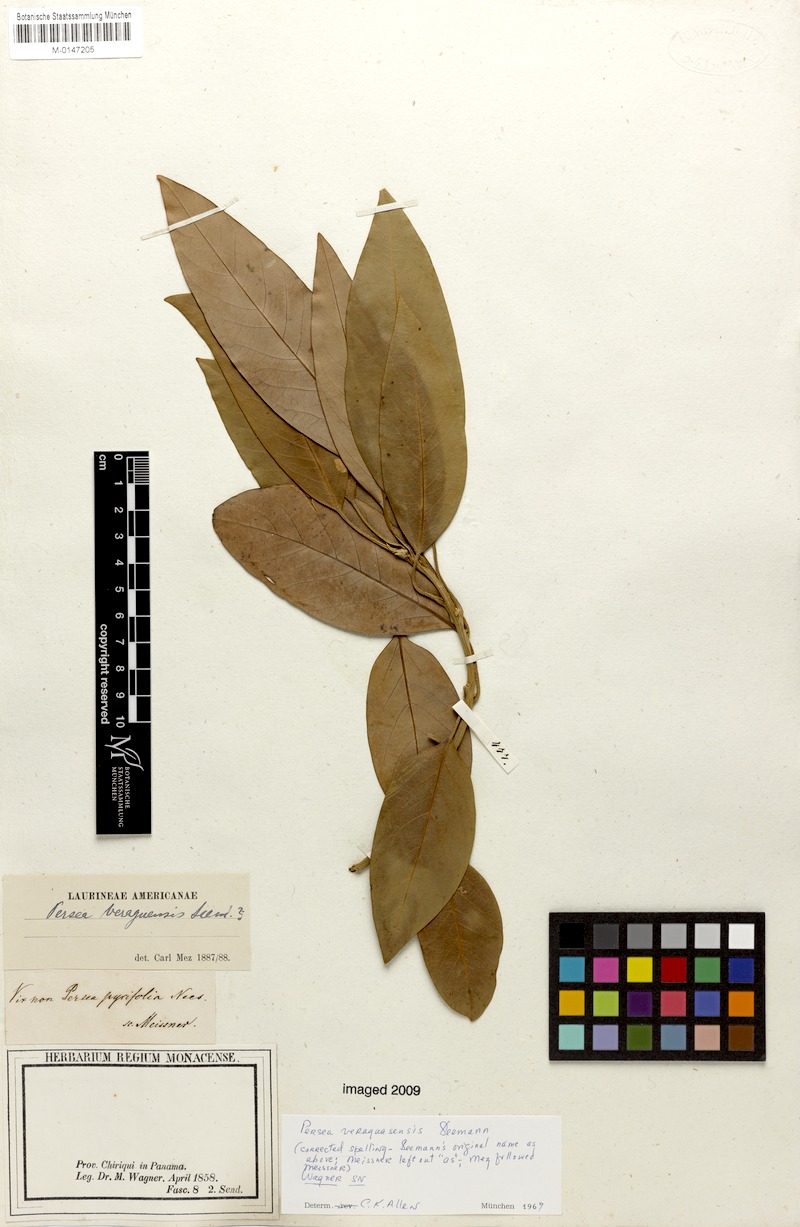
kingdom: Plantae
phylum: Tracheophyta
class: Magnoliopsida
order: Laurales
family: Lauraceae
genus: Persea
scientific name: Persea veraguasensis
